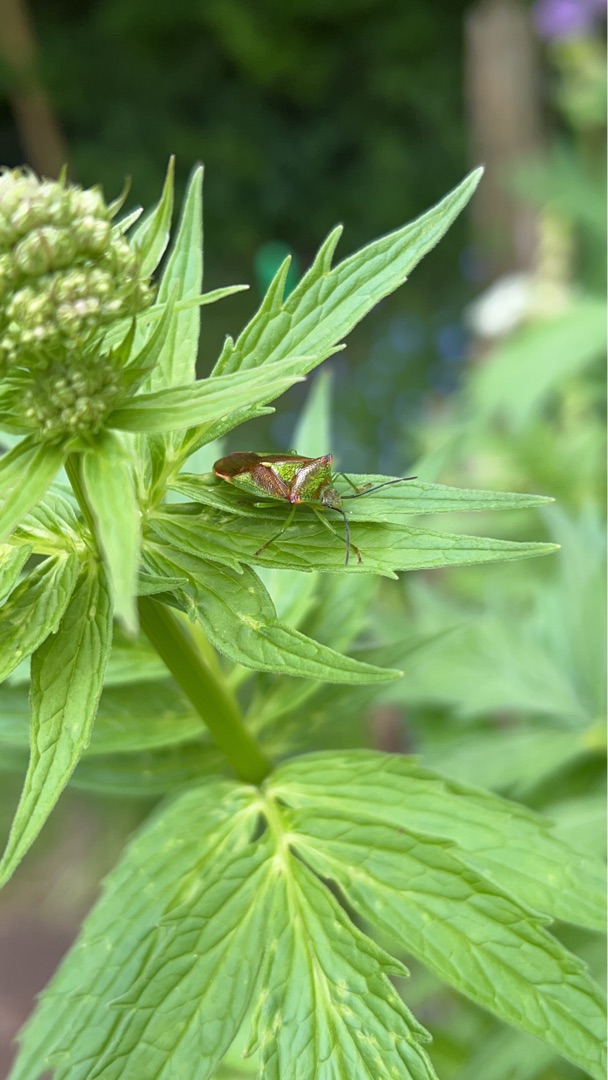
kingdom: Animalia
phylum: Arthropoda
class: Insecta
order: Hemiptera
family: Acanthosomatidae
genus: Acanthosoma
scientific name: Acanthosoma haemorrhoidale
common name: Stor løvtæge
